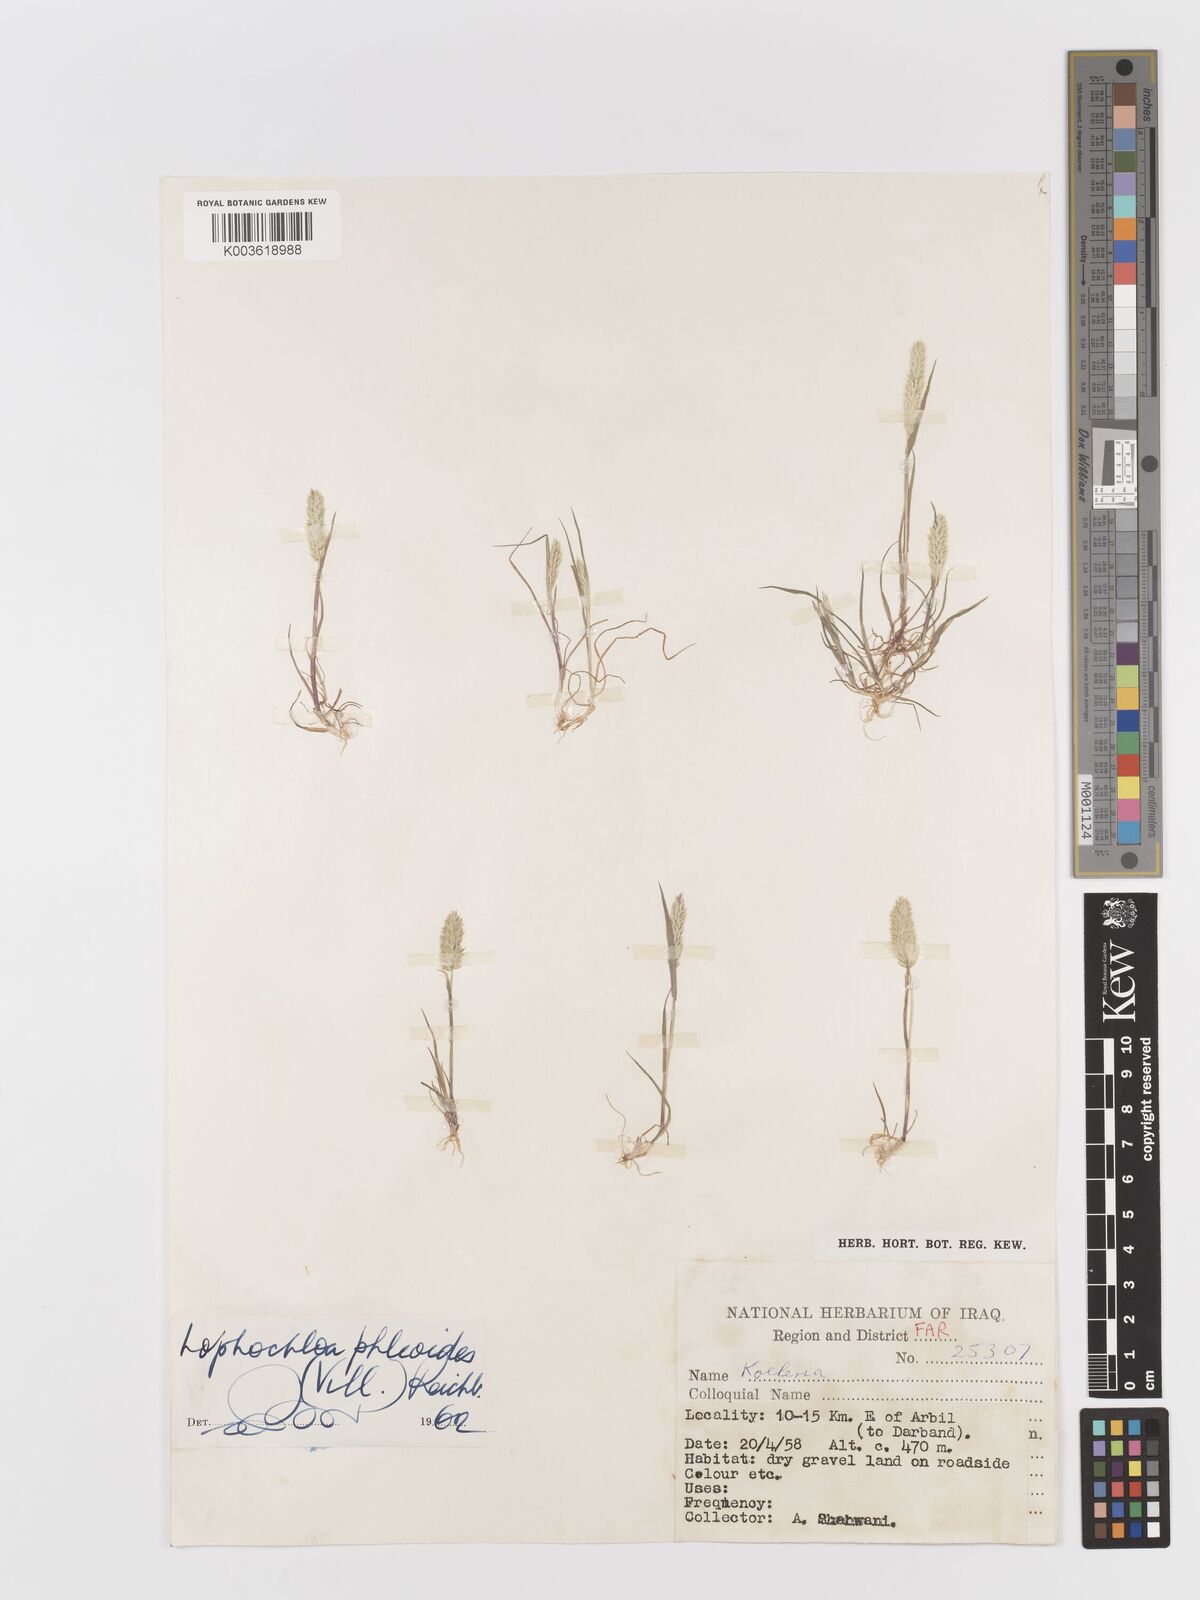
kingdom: Plantae
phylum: Tracheophyta
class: Liliopsida
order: Poales
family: Poaceae
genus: Rostraria
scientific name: Rostraria cristata
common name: Mediterranean hair-grass
